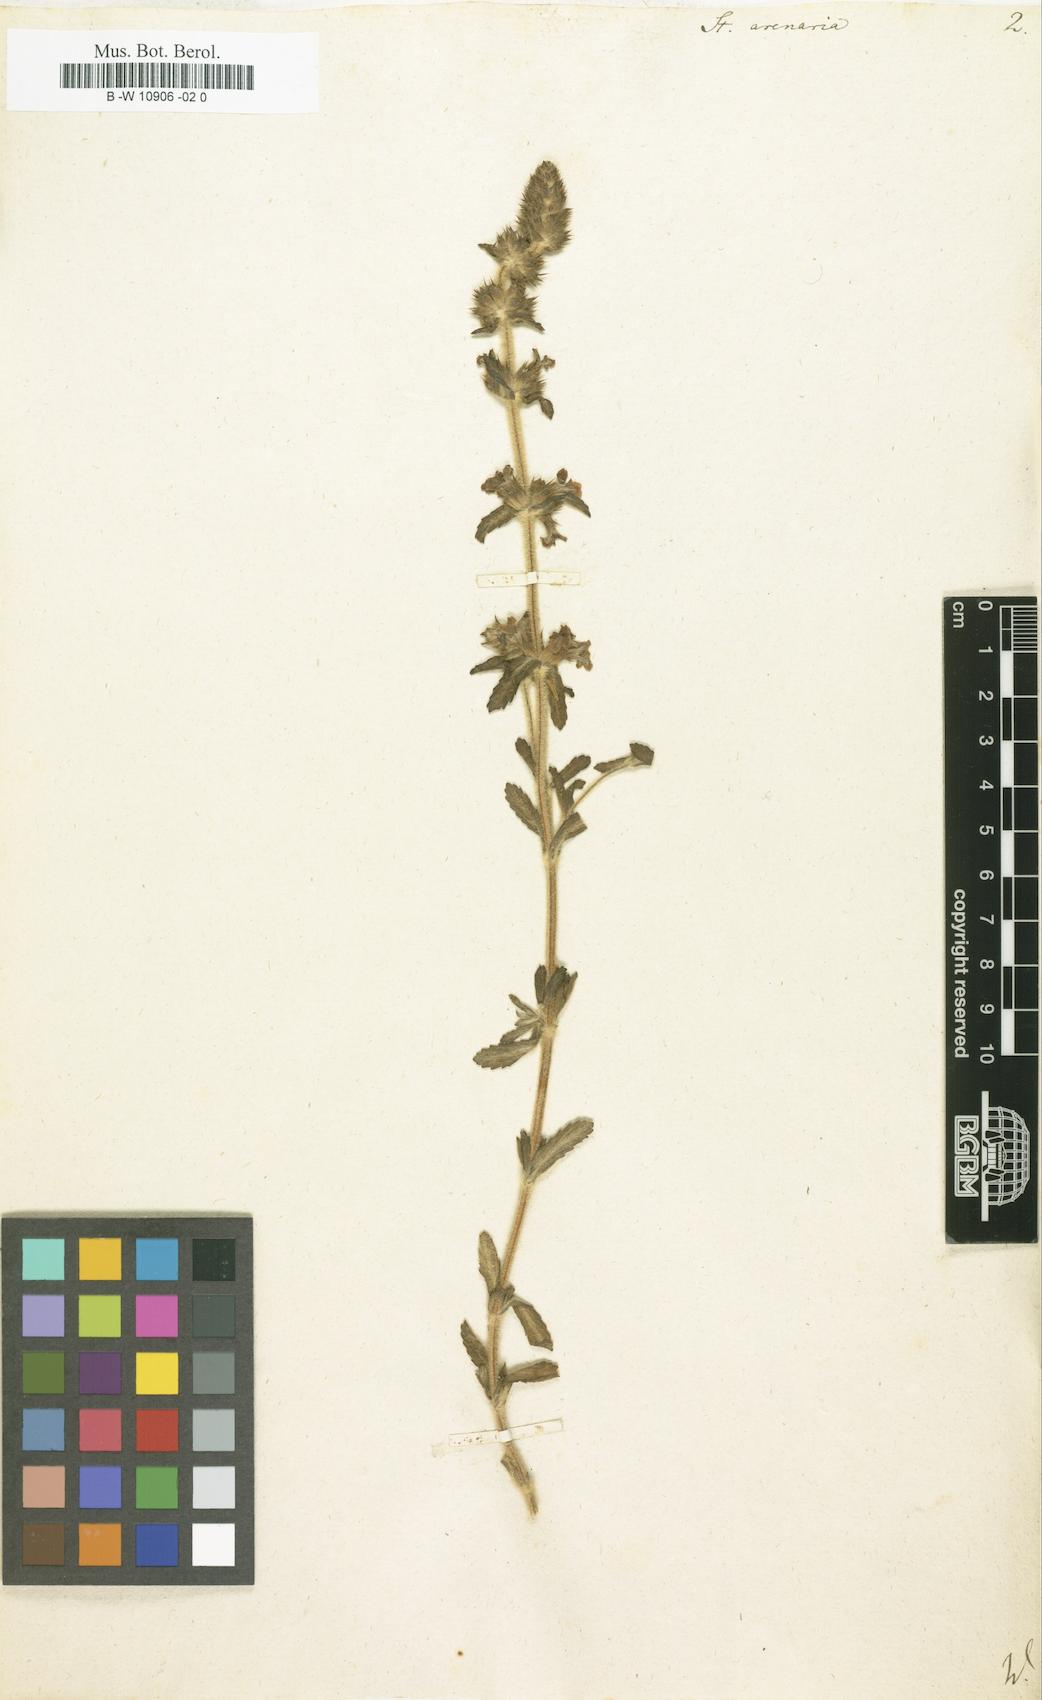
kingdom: Plantae
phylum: Tracheophyta
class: Magnoliopsida
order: Lamiales
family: Lamiaceae
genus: Stachys
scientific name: Stachys arenaria
